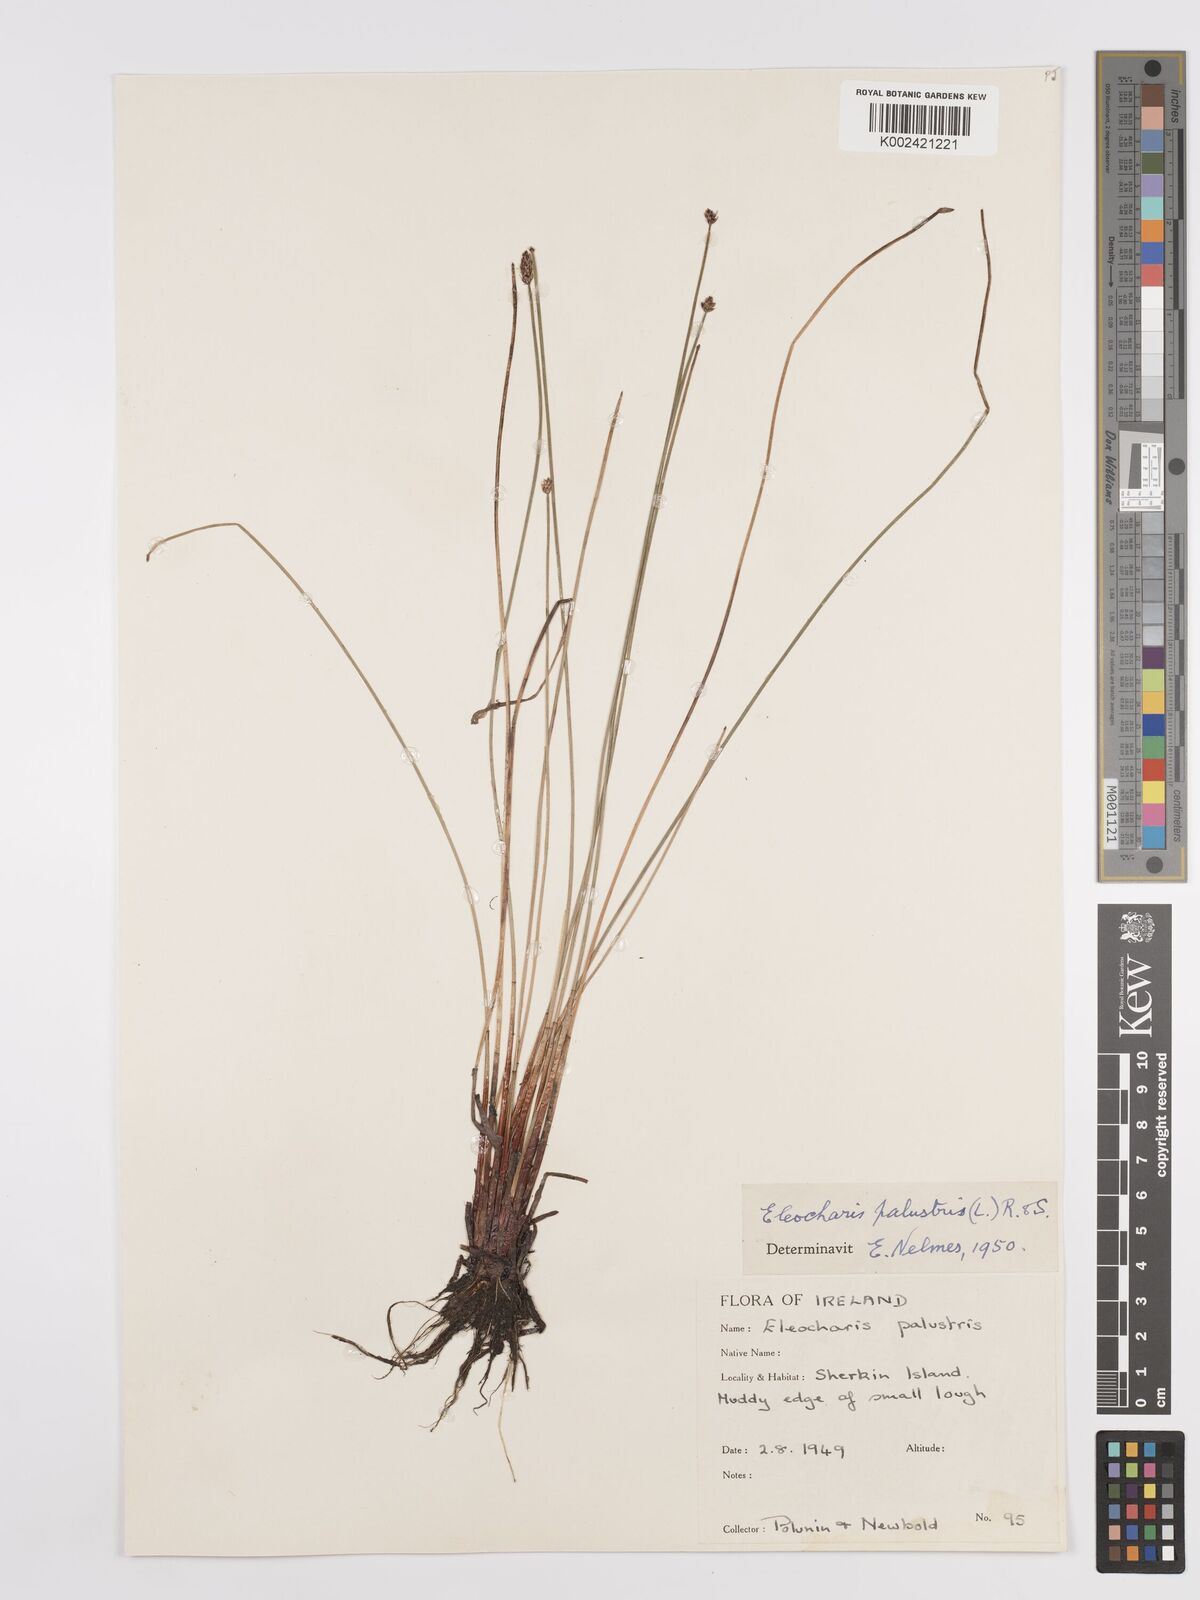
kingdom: Plantae
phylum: Tracheophyta
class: Liliopsida
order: Poales
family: Cyperaceae
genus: Eleocharis
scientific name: Eleocharis palustris
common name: Common spike-rush
